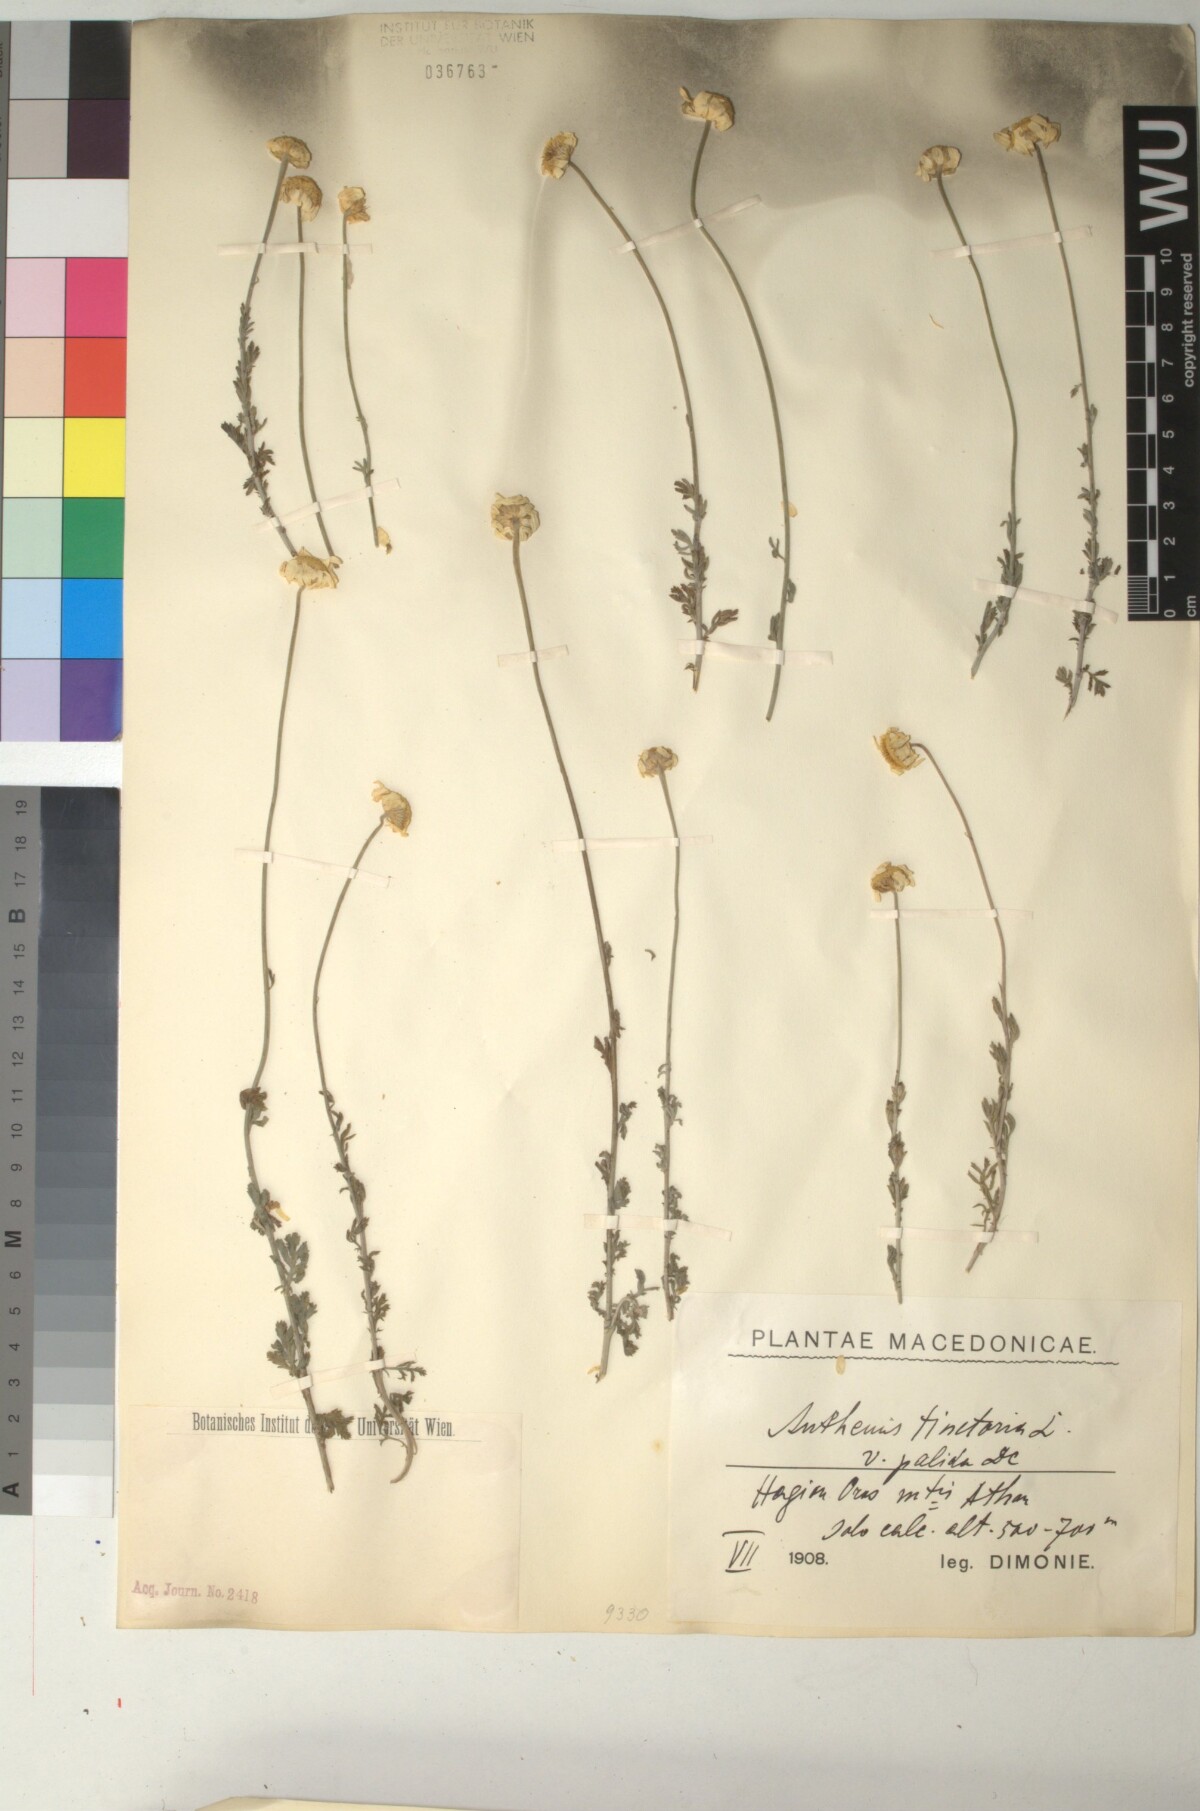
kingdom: Plantae
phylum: Tracheophyta
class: Magnoliopsida
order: Asterales
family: Asteraceae
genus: Cota
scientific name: Cota tinctoria
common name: Golden chamomile
